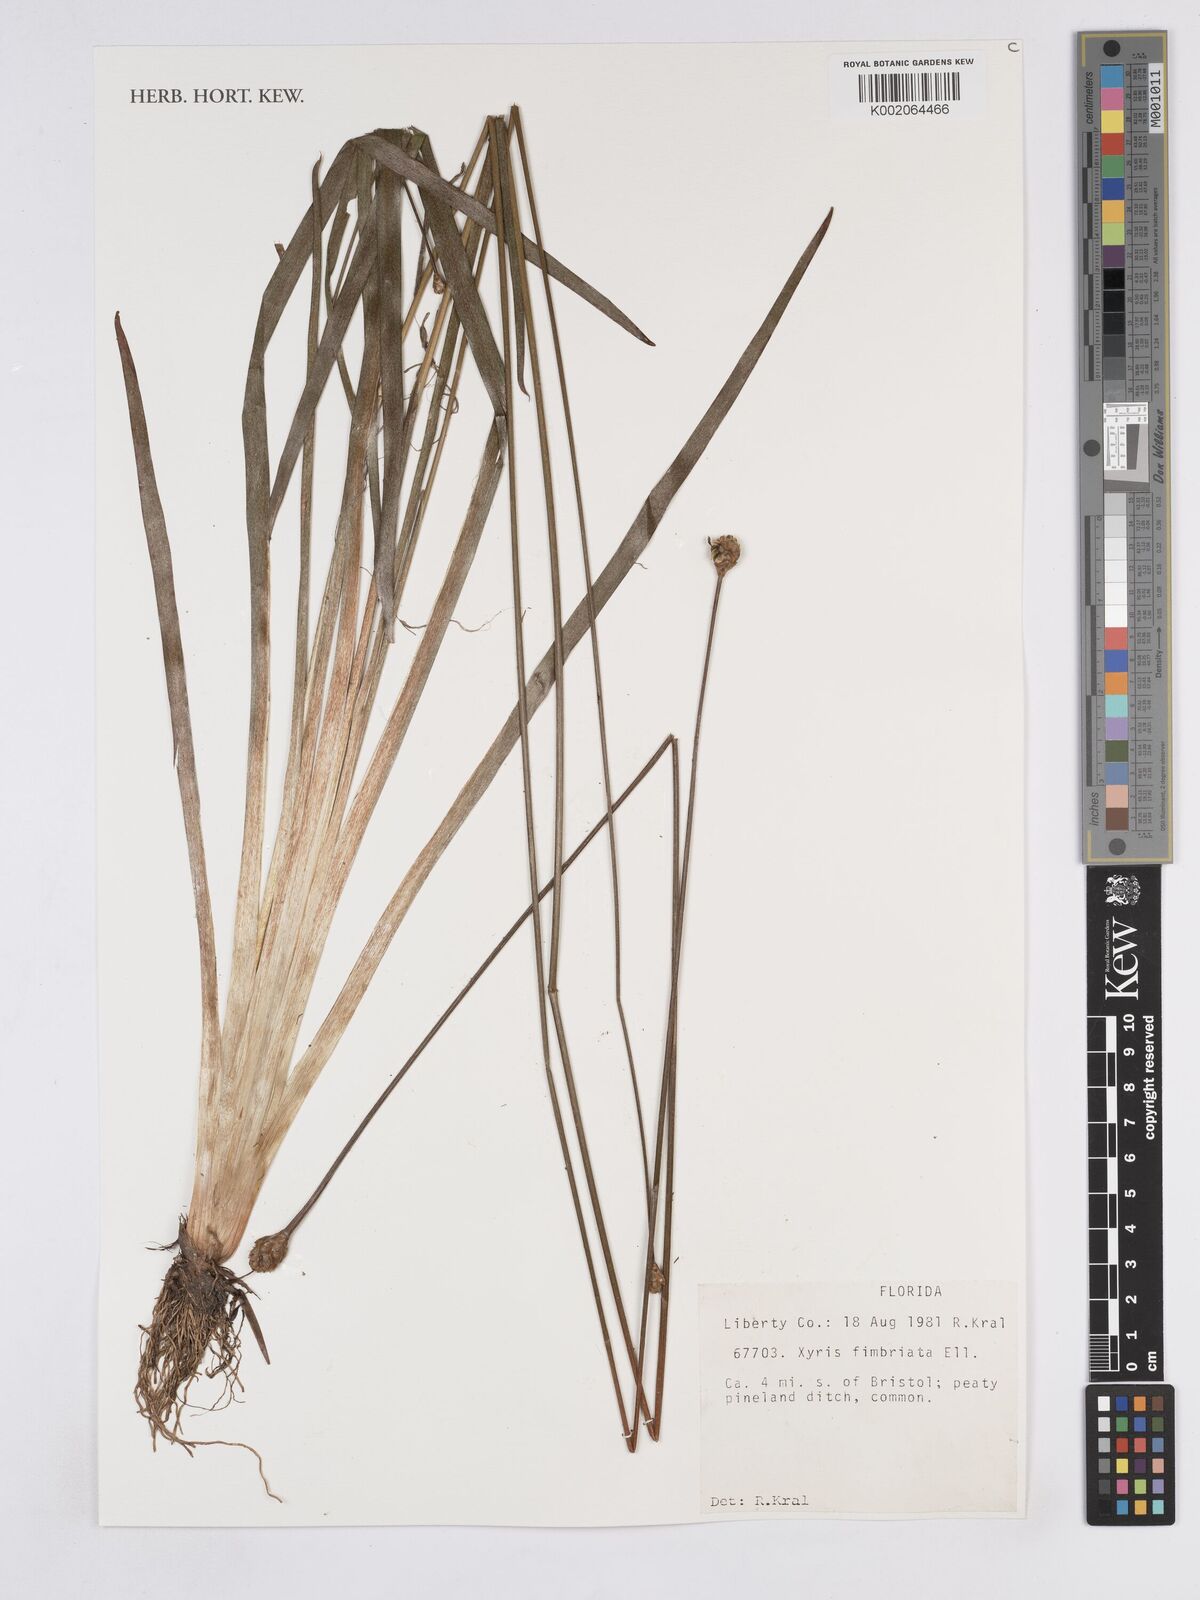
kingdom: Plantae
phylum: Tracheophyta
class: Liliopsida
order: Poales
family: Xyridaceae
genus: Xyris
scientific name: Xyris fimbriata
